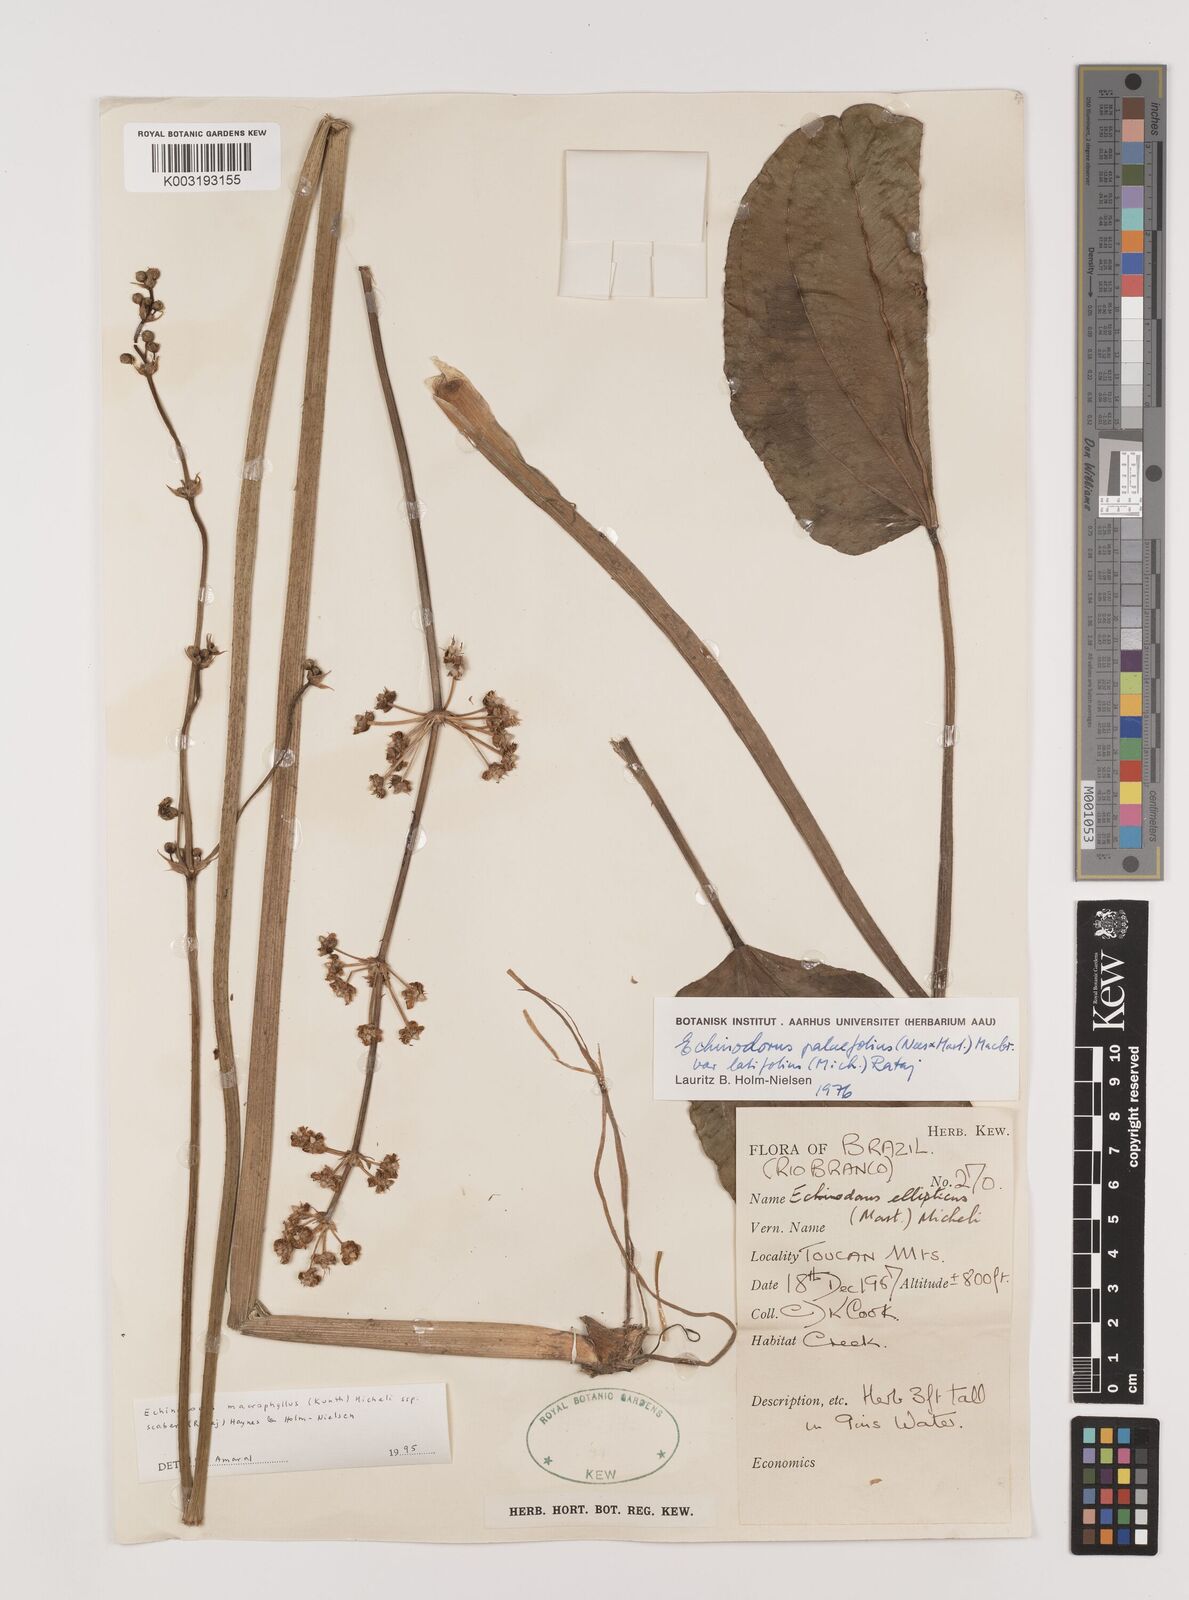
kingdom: Plantae
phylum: Tracheophyta
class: Liliopsida
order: Alismatales
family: Alismataceae
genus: Aquarius
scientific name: Aquarius macrophyllus
